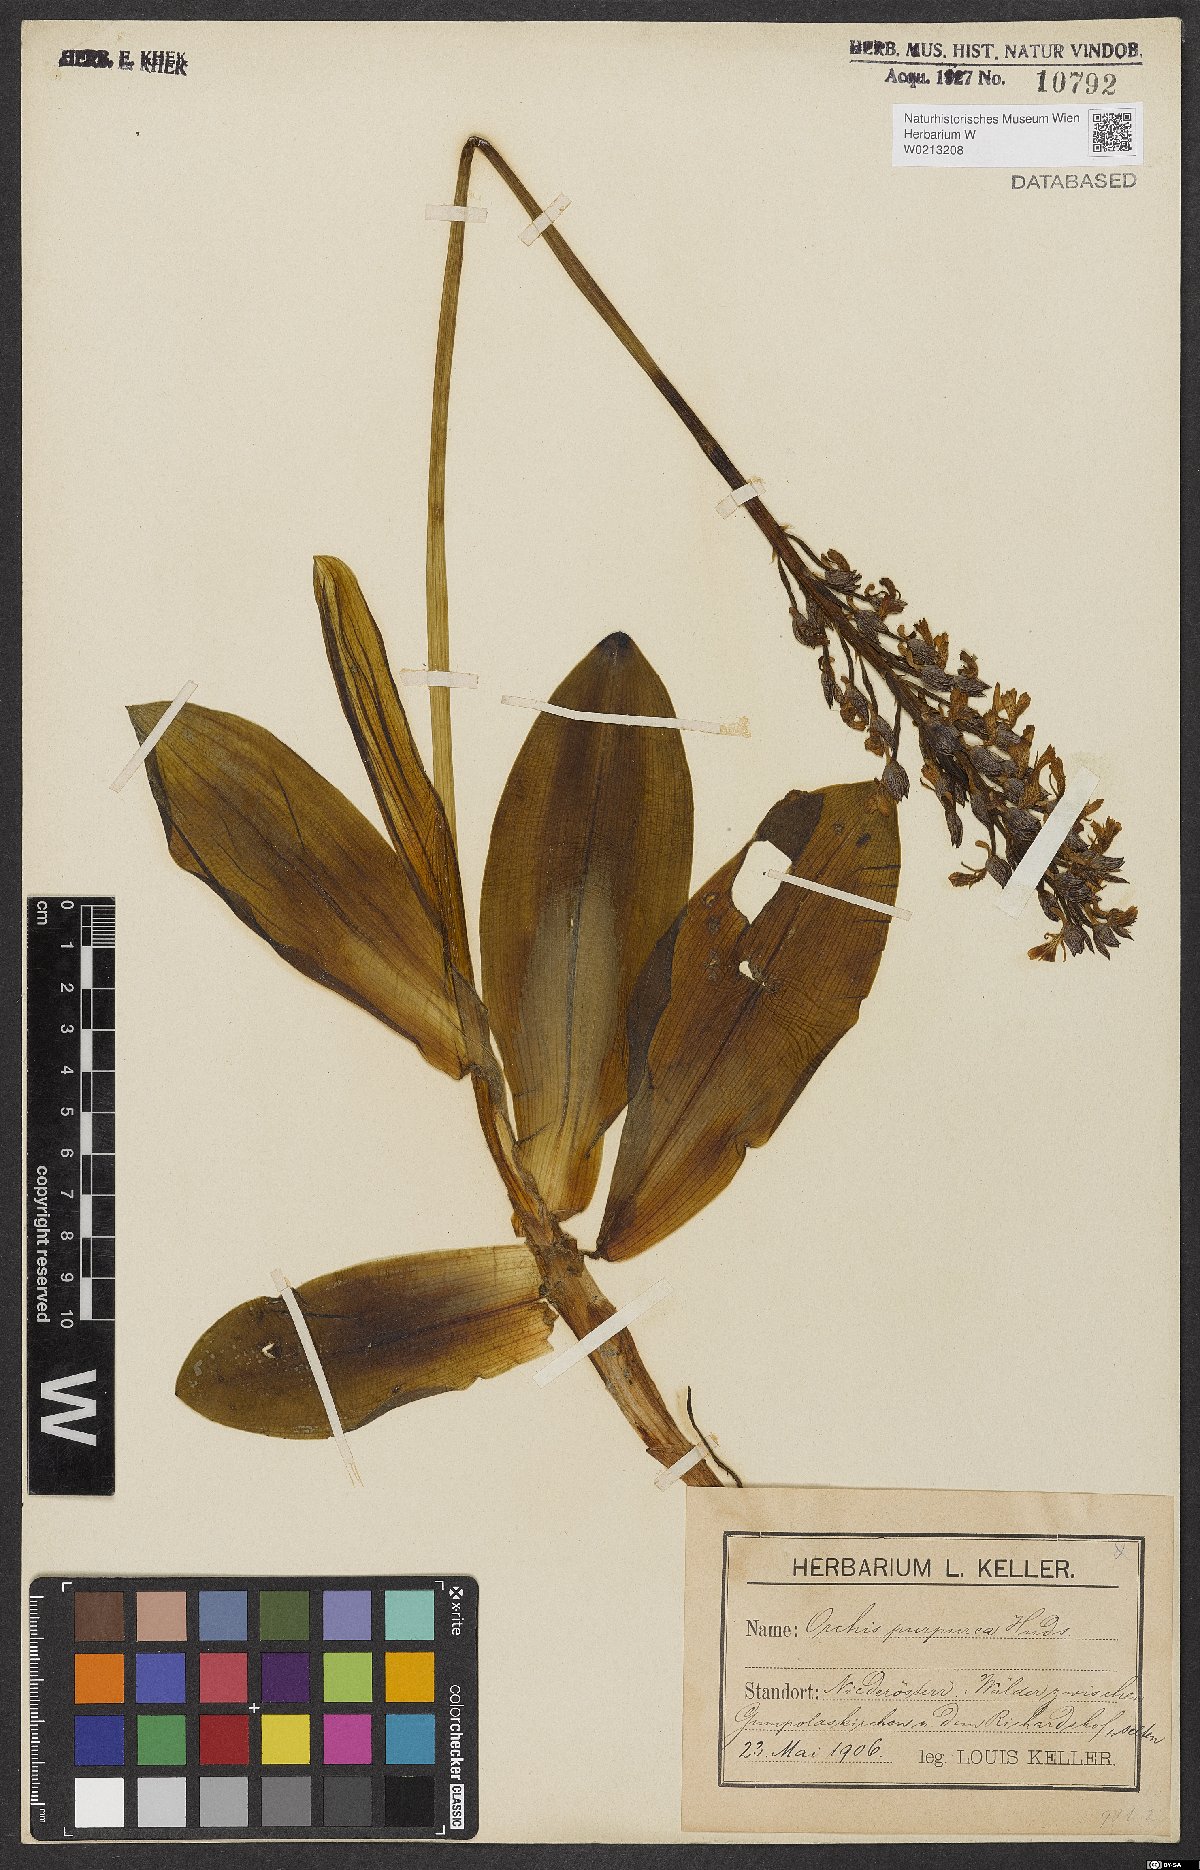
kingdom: Plantae
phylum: Tracheophyta
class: Liliopsida
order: Asparagales
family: Orchidaceae
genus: Orchis
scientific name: Orchis purpurea
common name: Lady orchid
